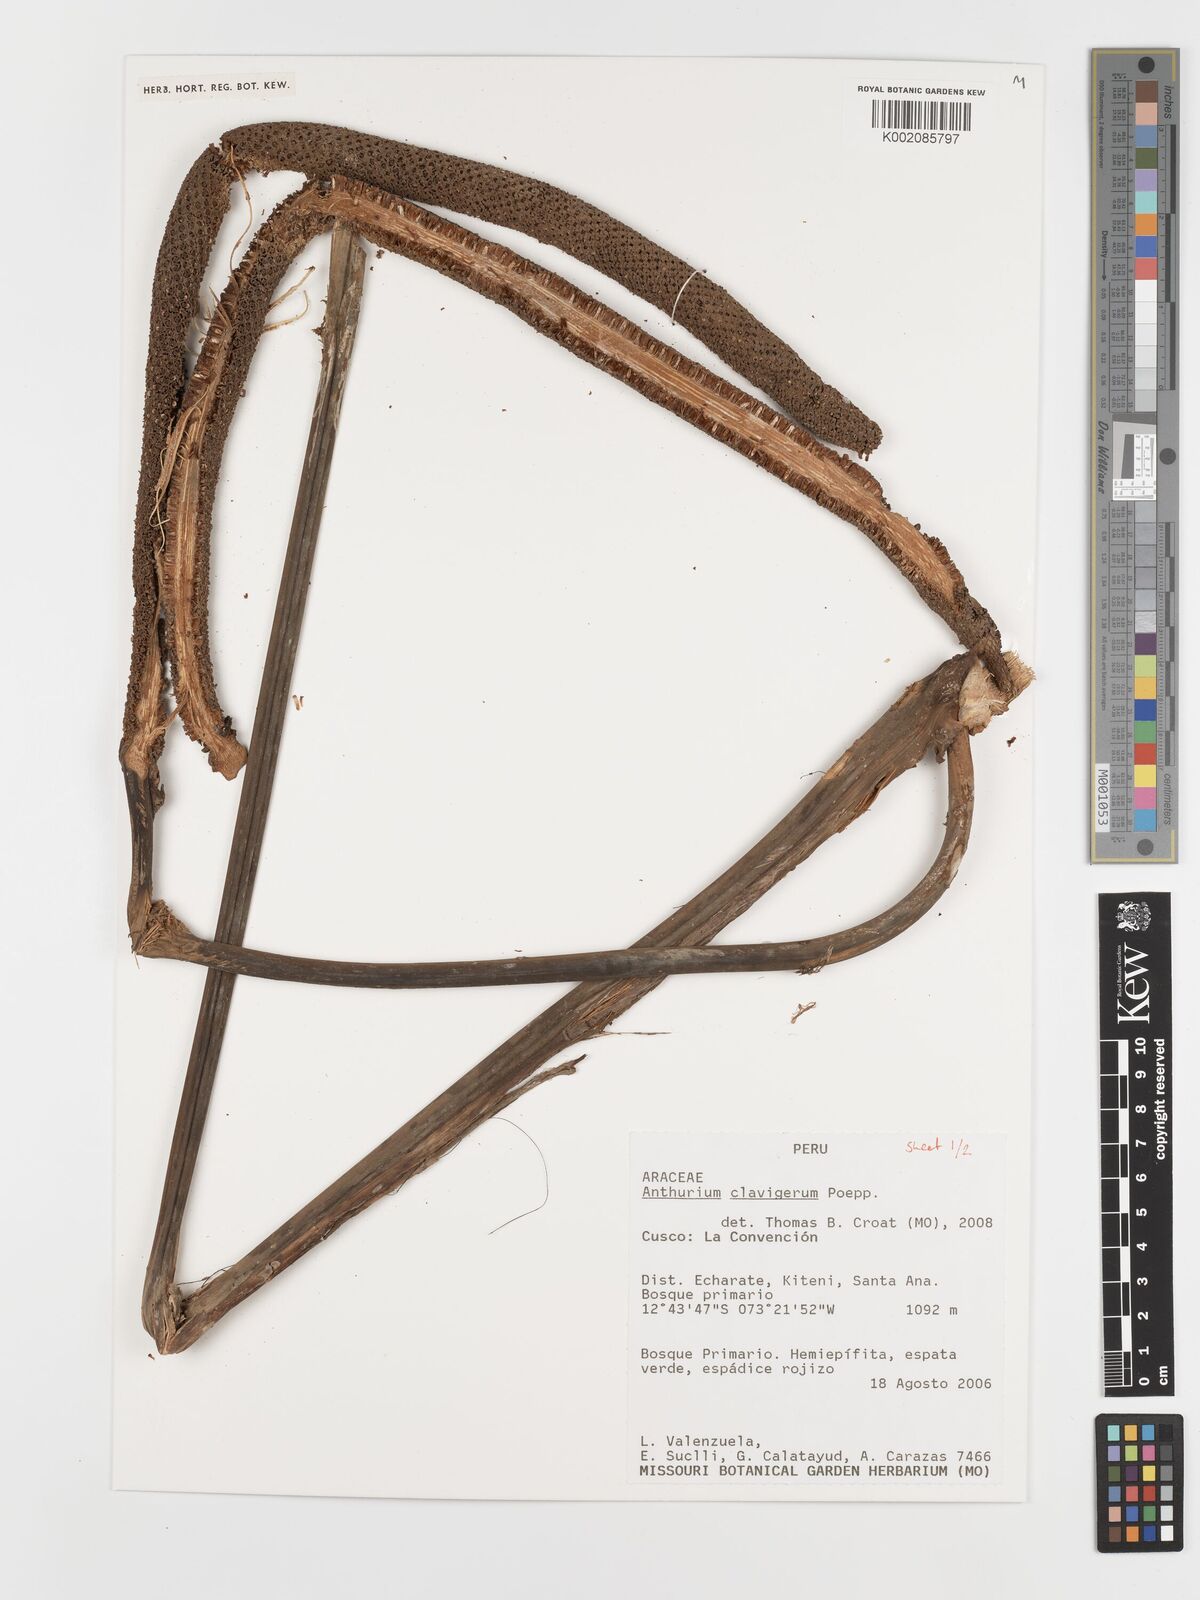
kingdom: Plantae
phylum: Tracheophyta
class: Liliopsida
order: Alismatales
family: Araceae
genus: Anthurium
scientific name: Anthurium clavigerum
